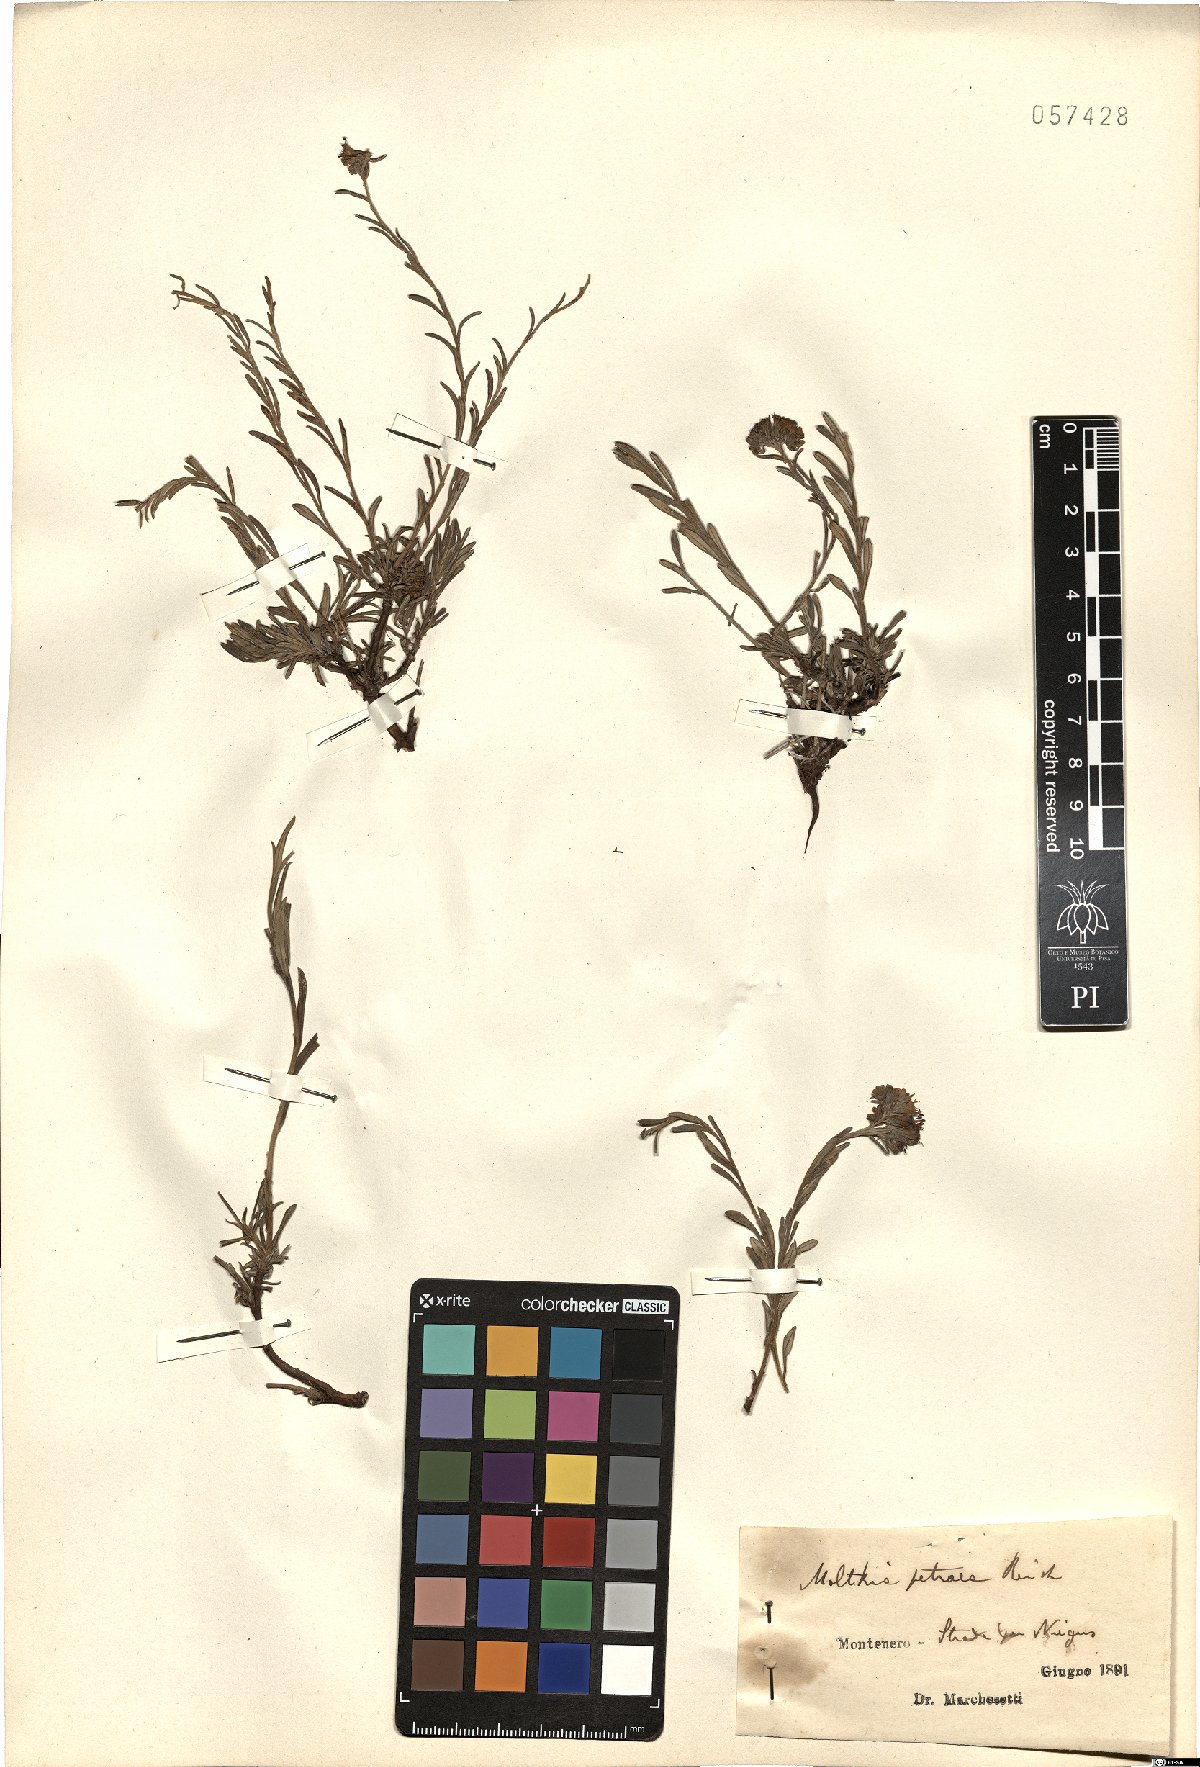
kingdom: Plantae
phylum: Tracheophyta
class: Magnoliopsida
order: Boraginales
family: Boraginaceae
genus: Moltkia
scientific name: Moltkia petraea
